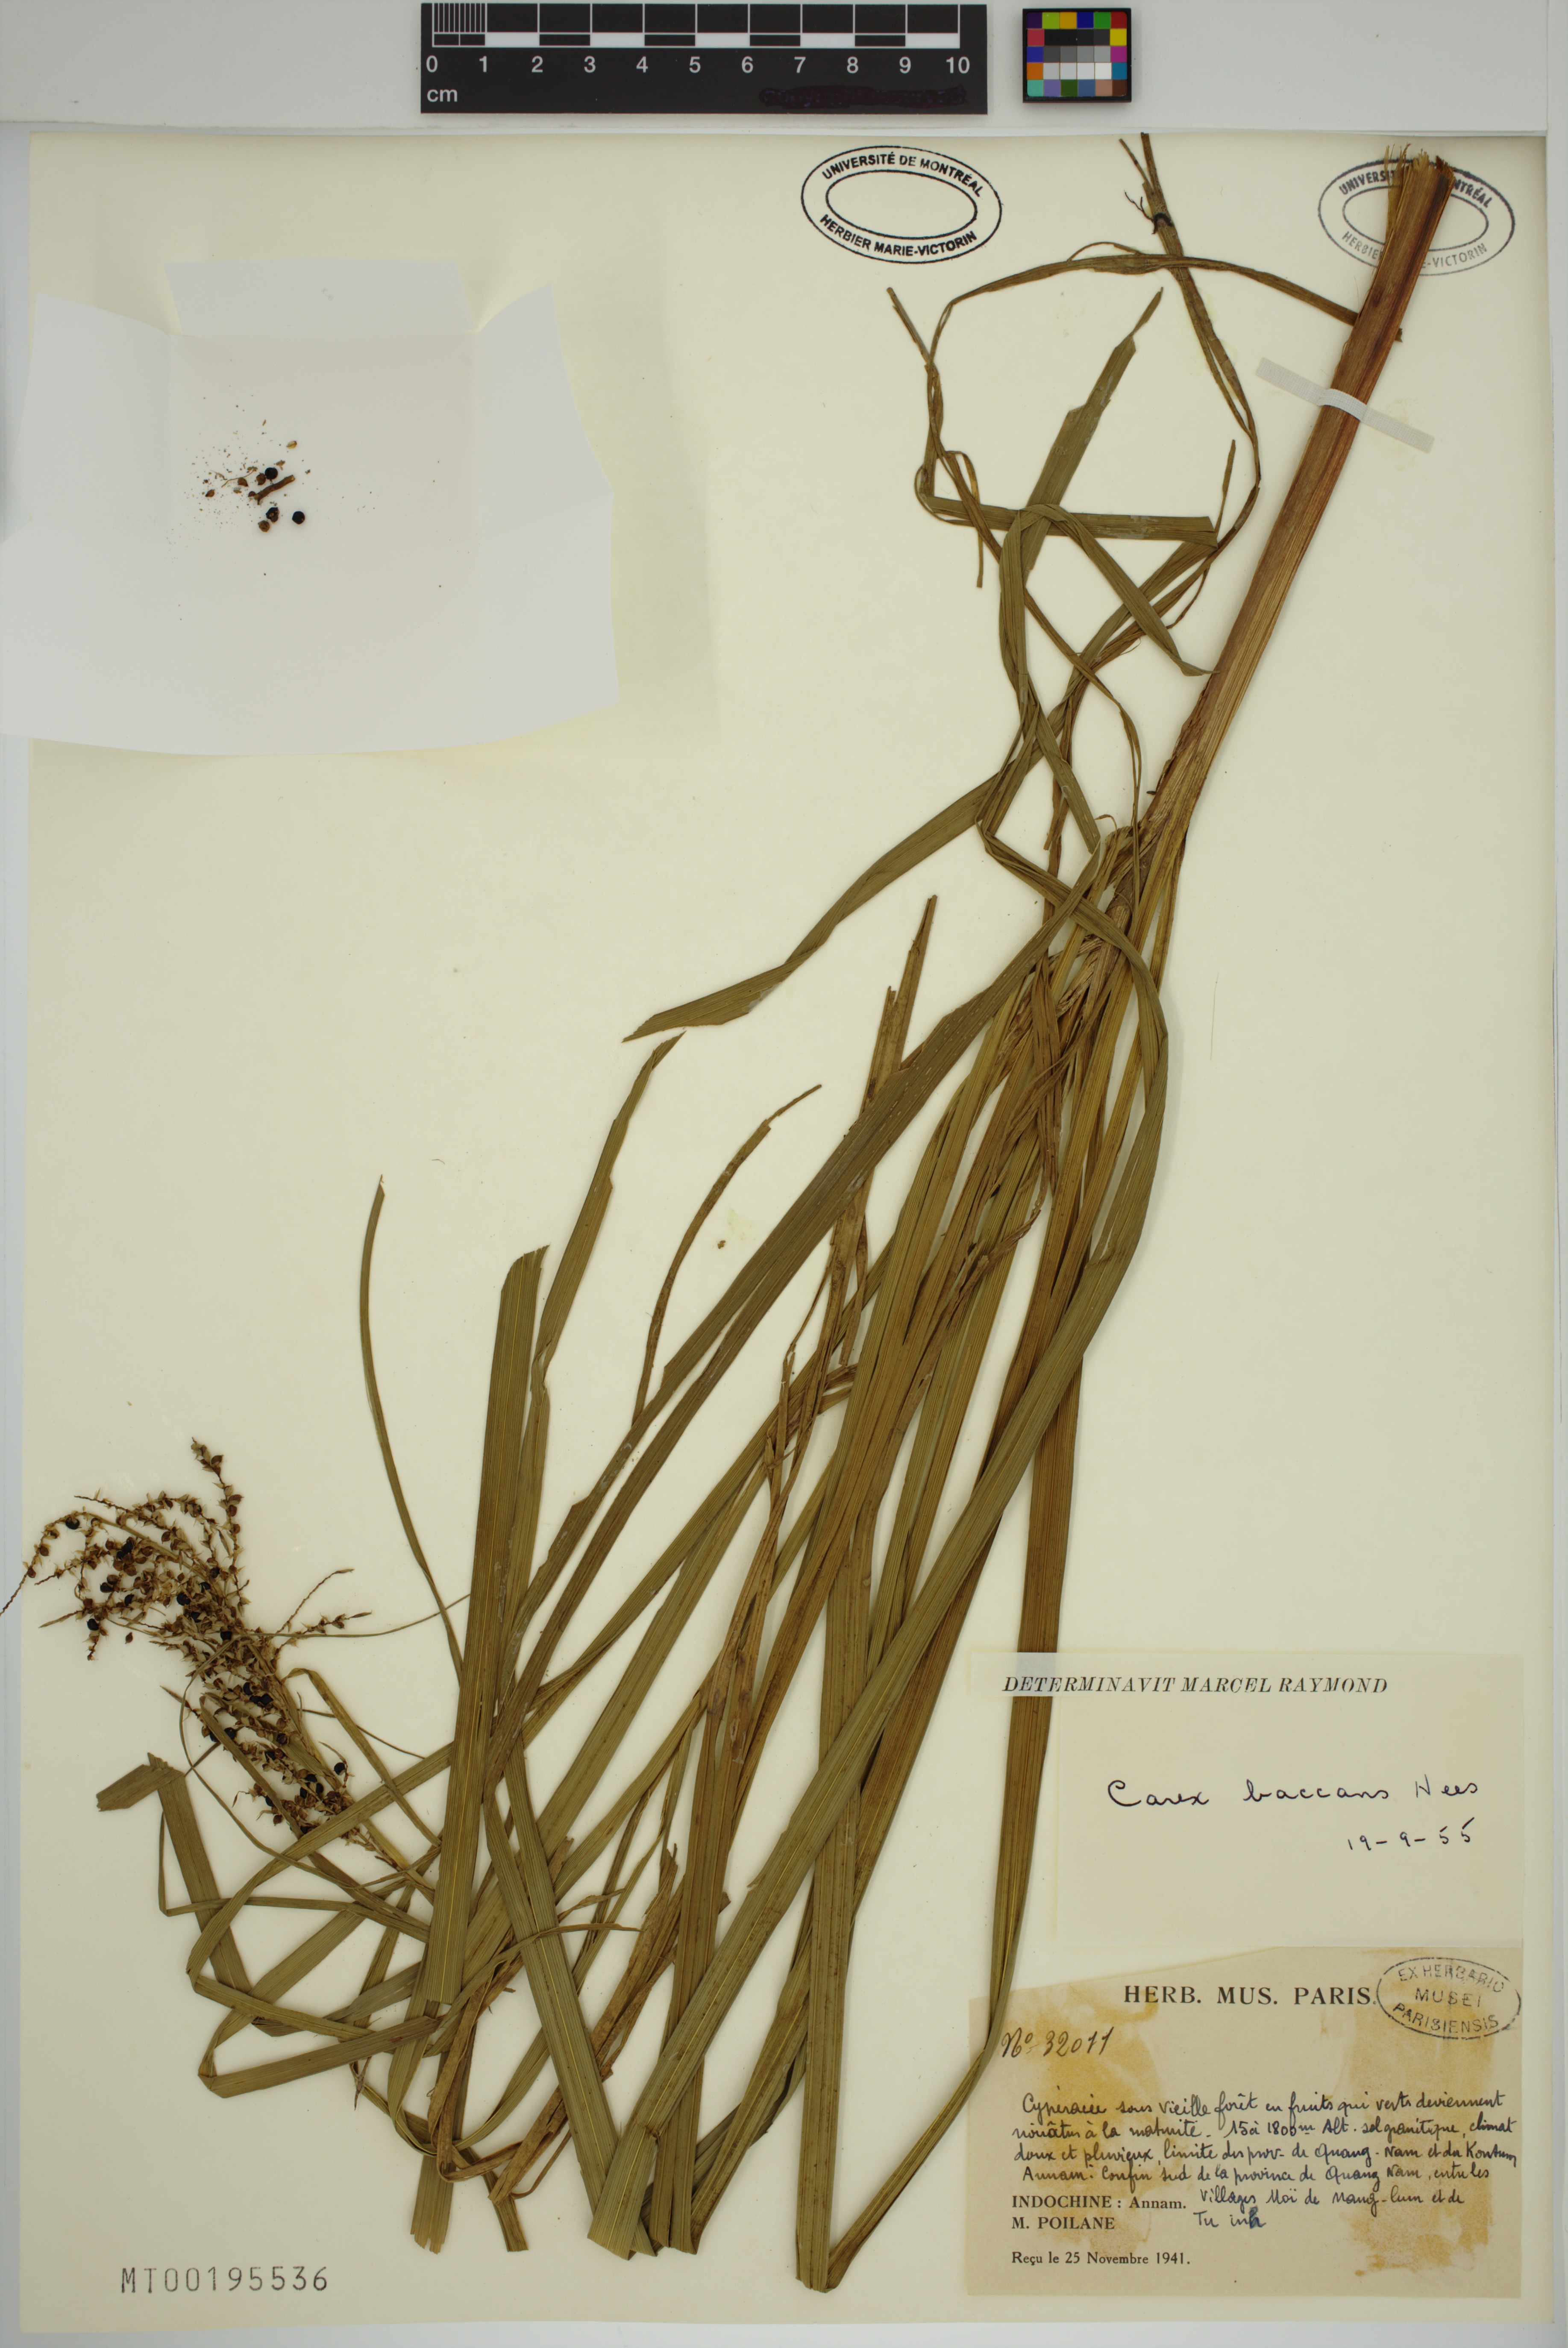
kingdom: Plantae
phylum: Tracheophyta
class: Liliopsida
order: Poales
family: Cyperaceae
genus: Carex
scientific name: Carex baccans
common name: Crimson seeded sedge
